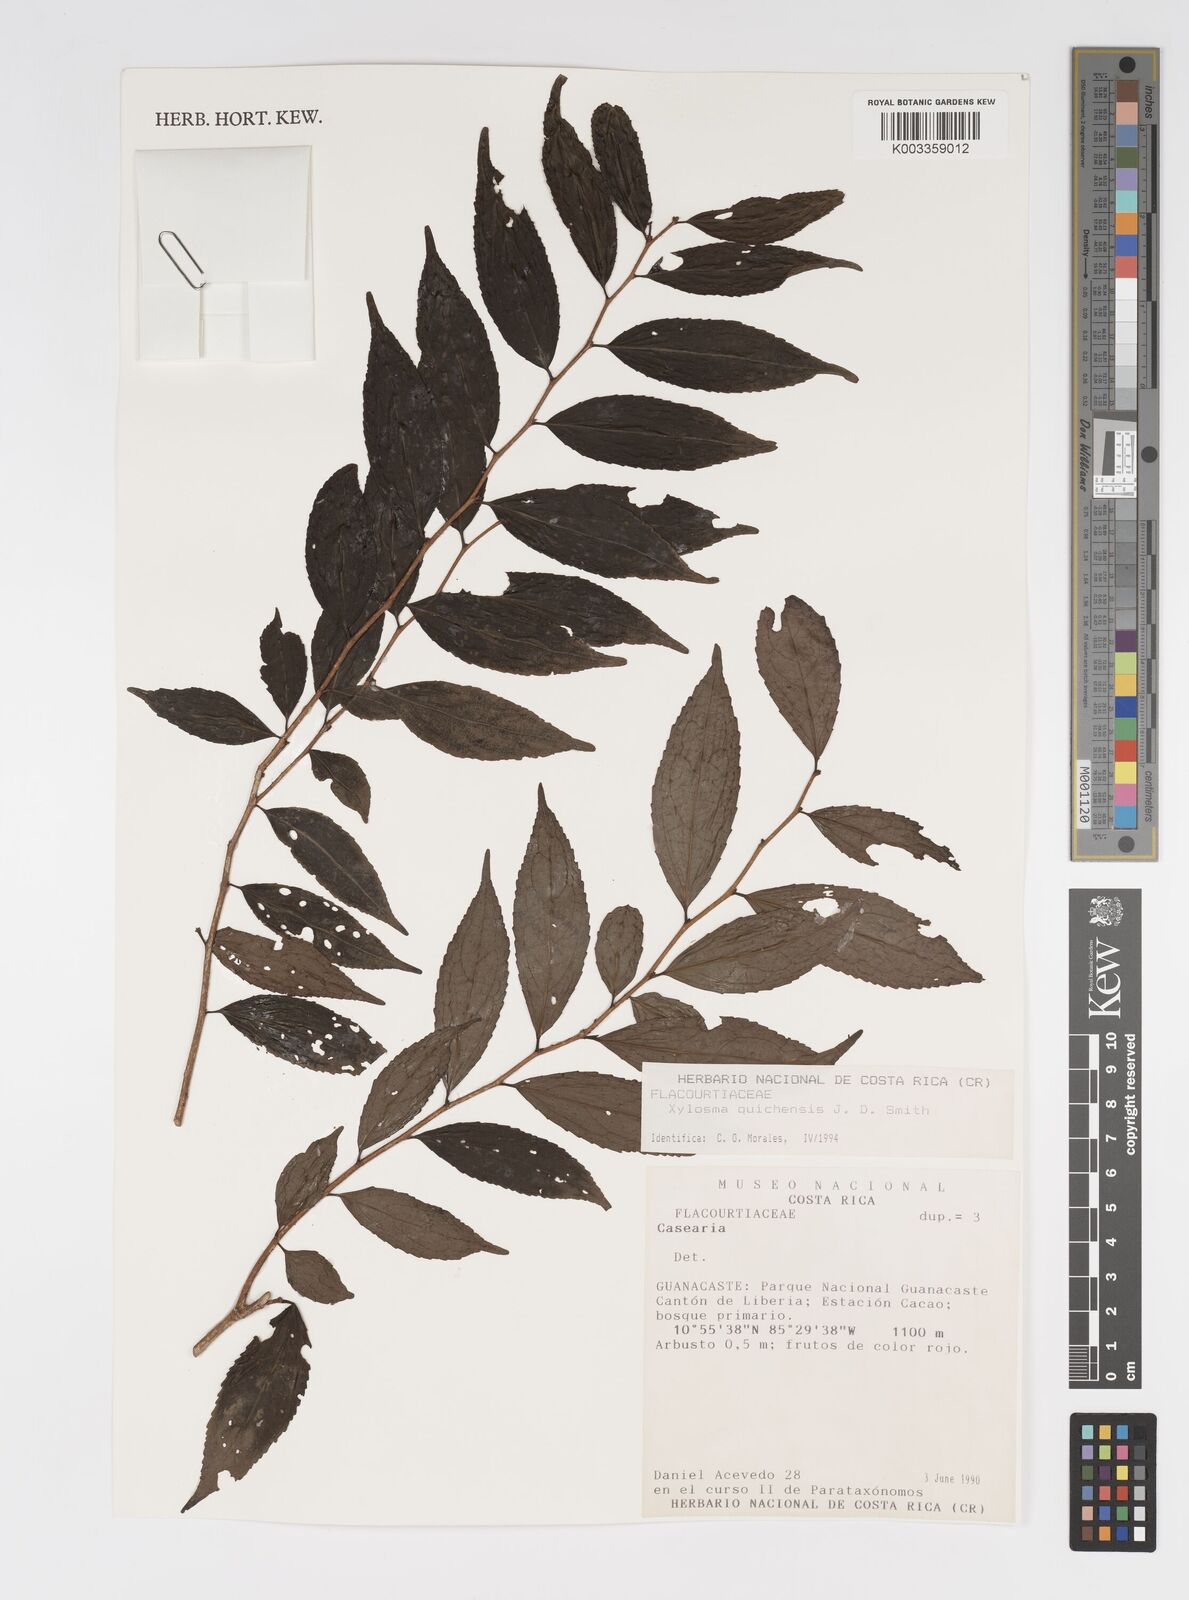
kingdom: Plantae
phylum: Tracheophyta
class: Magnoliopsida
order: Malpighiales
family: Salicaceae
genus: Xylosma
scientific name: Xylosma quichensis
